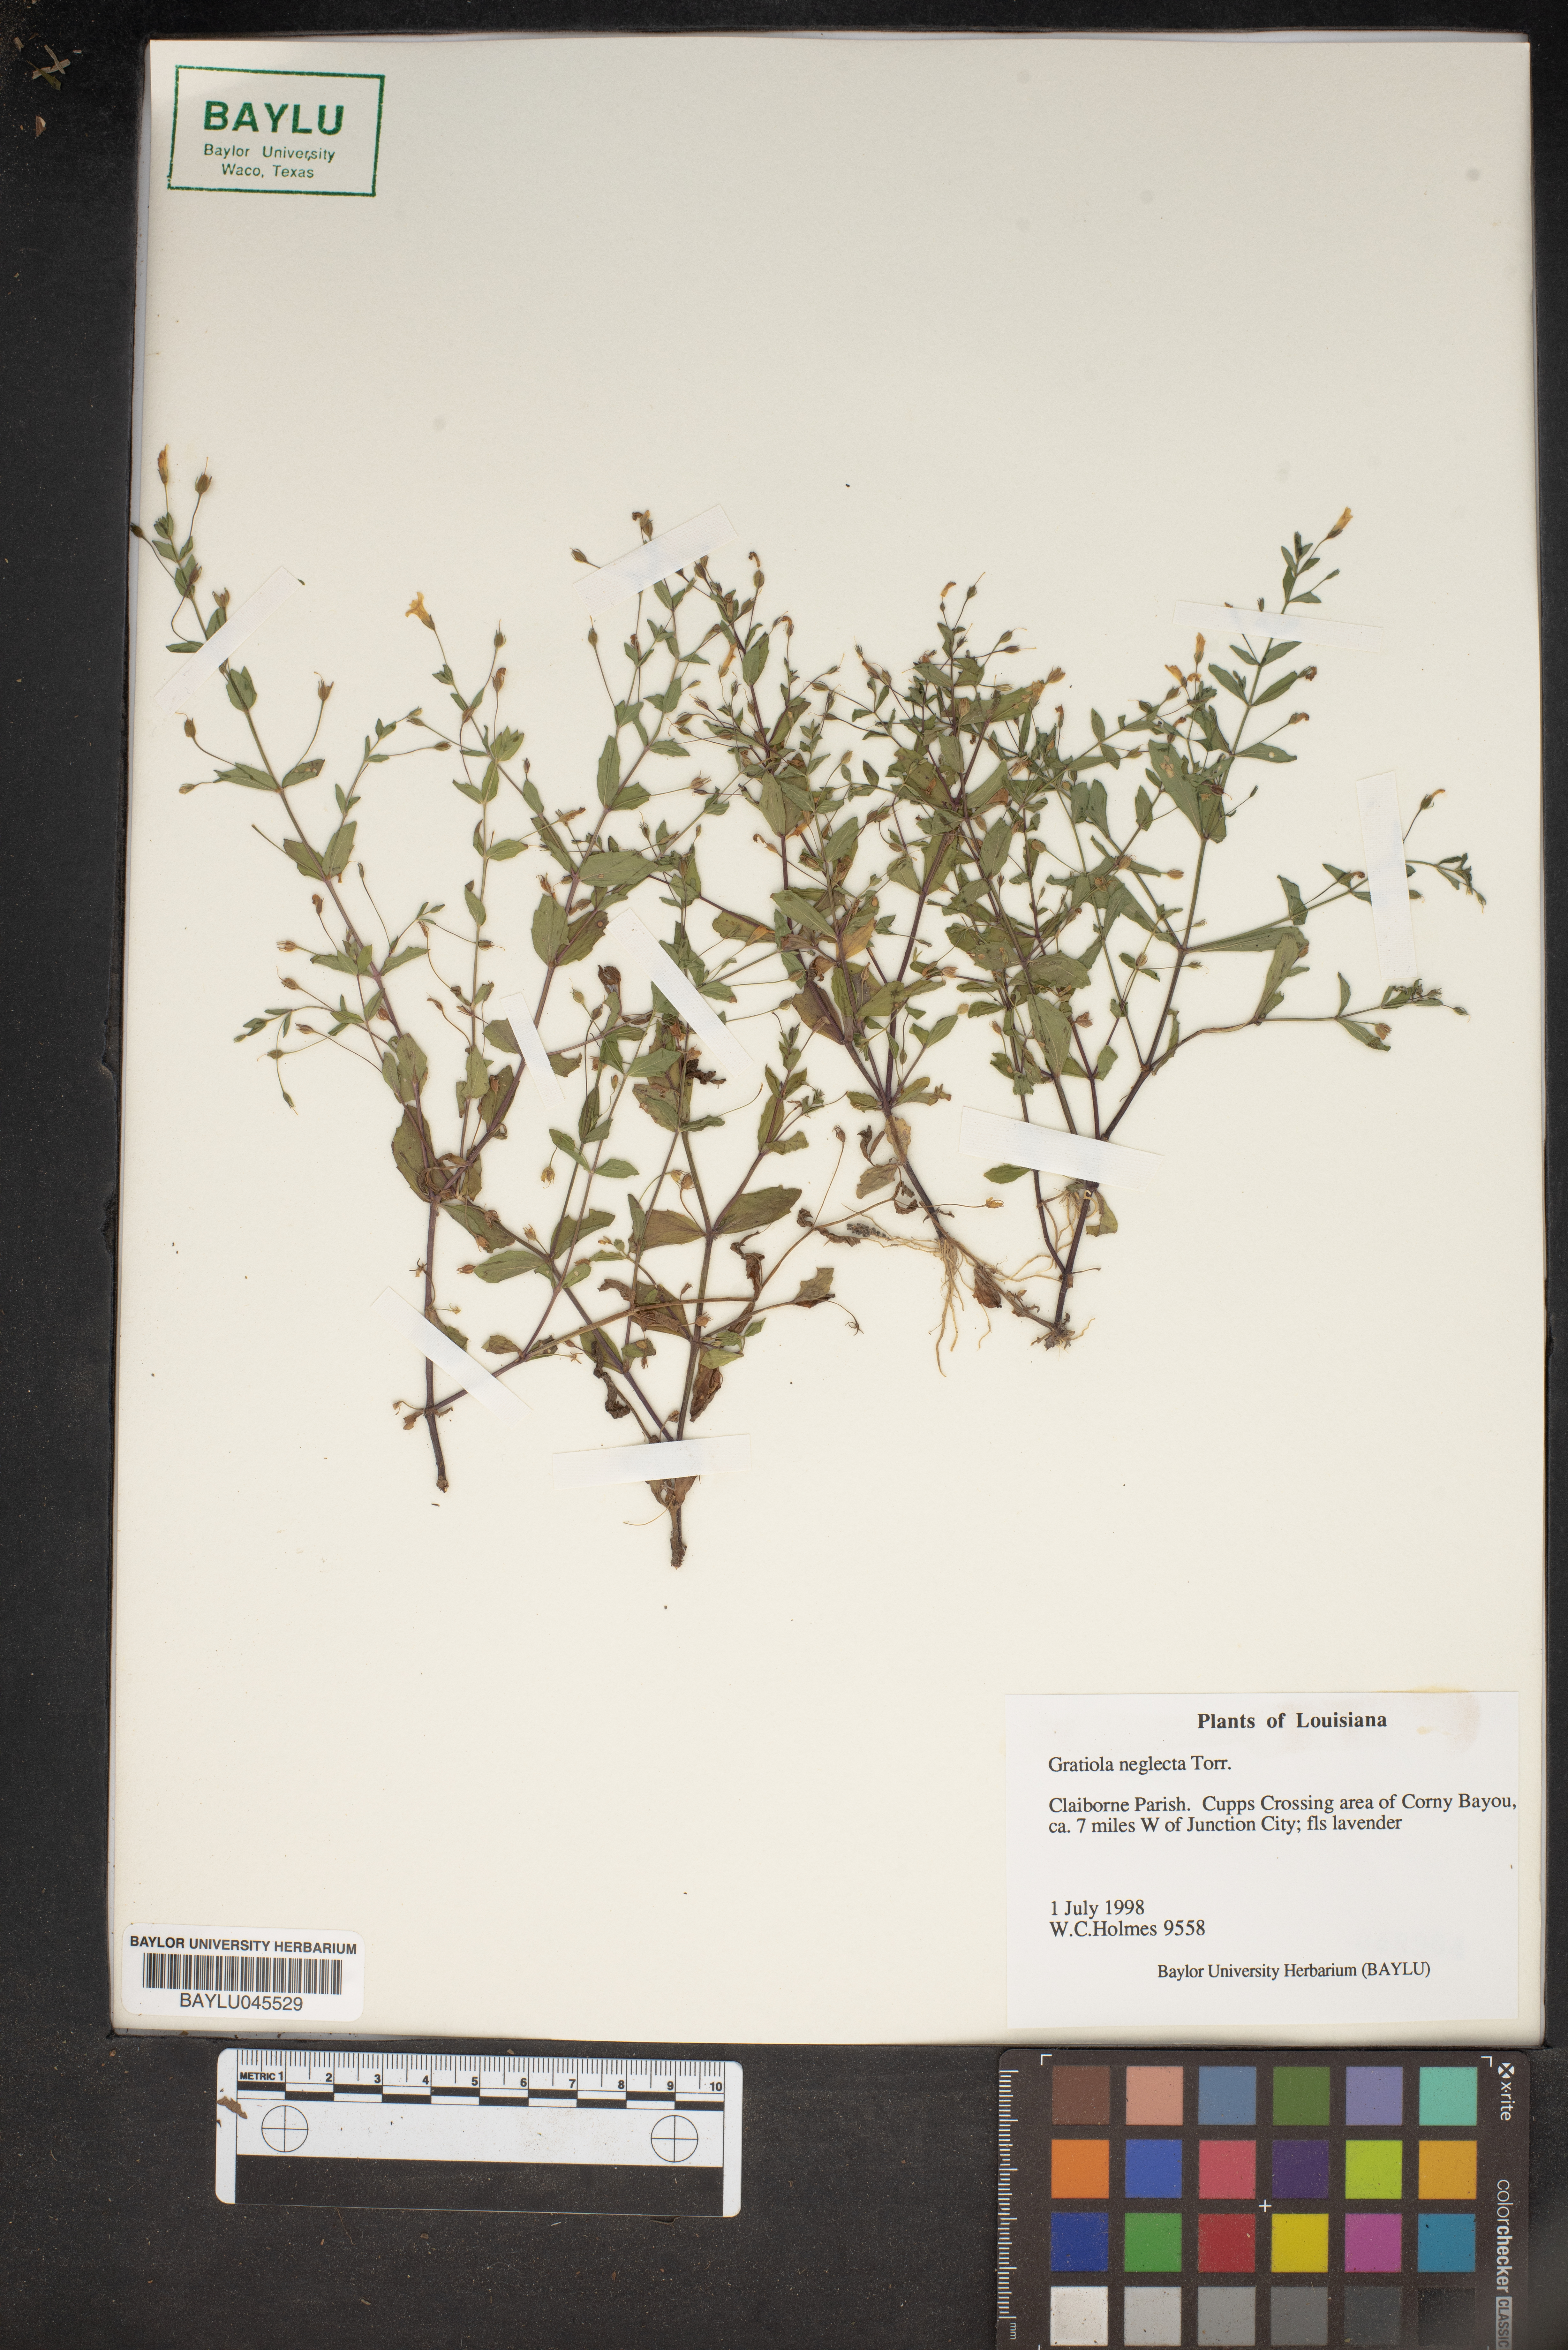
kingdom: Plantae
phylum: Tracheophyta
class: Magnoliopsida
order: Lamiales
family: Plantaginaceae
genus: Gratiola
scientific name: Gratiola neglecta
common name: American hedge-hyssop
